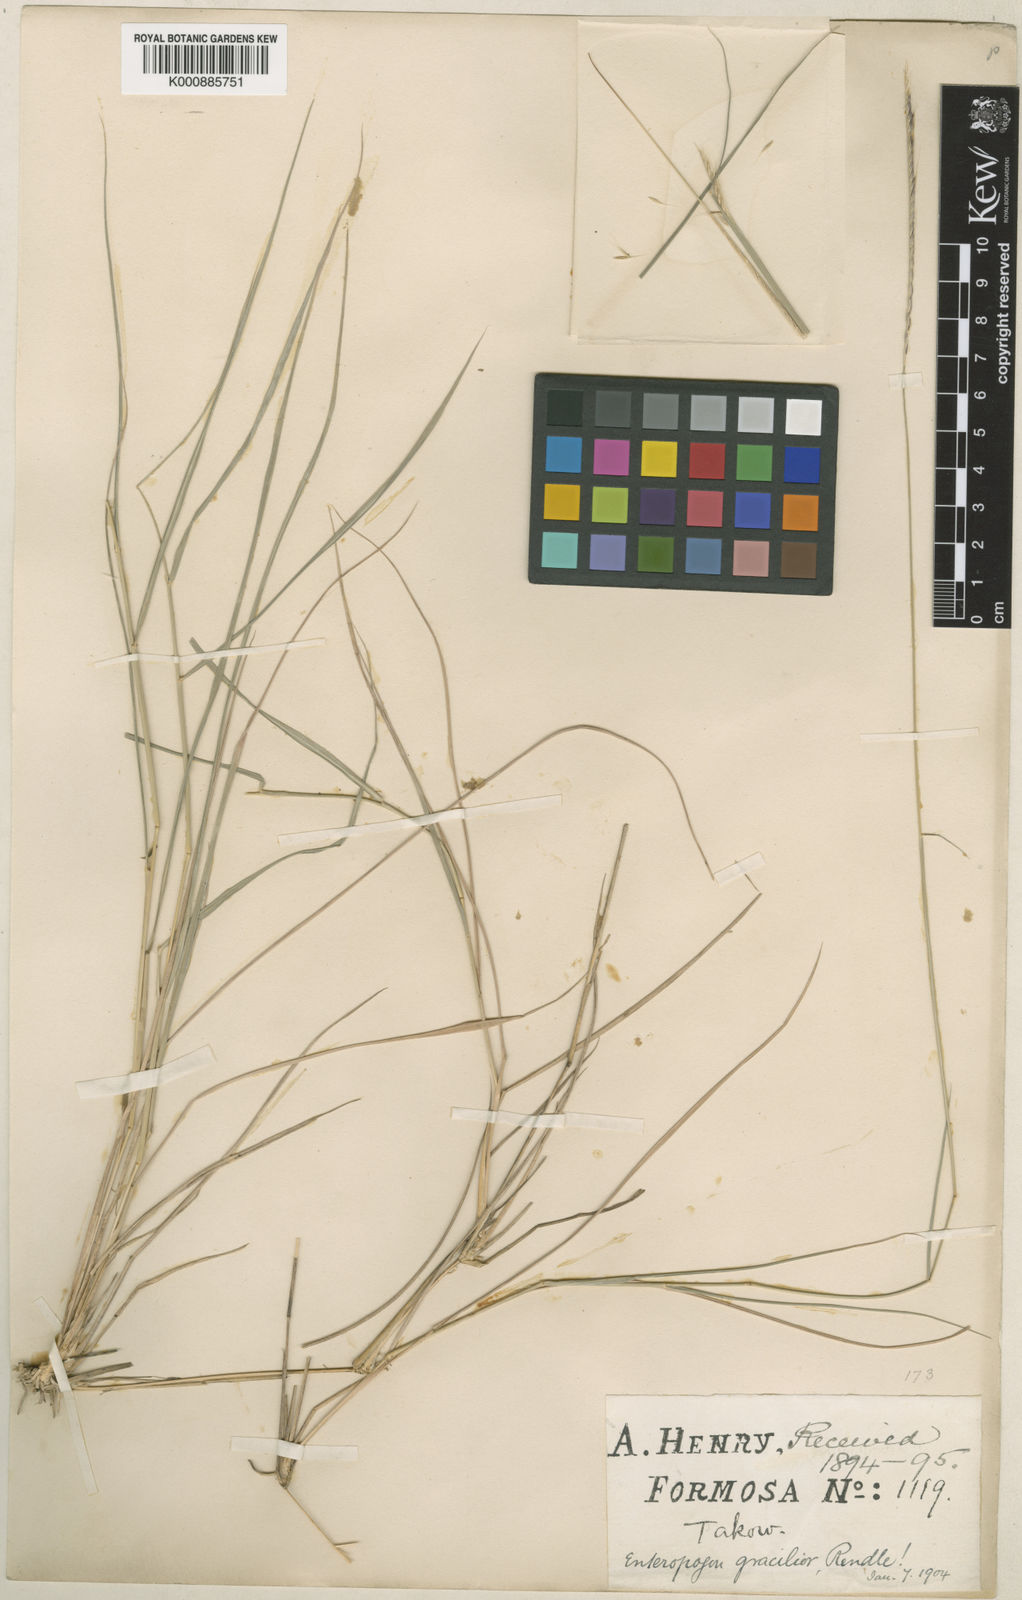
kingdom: Plantae
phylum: Tracheophyta
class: Liliopsida
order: Poales
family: Poaceae
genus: Enteropogon
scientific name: Enteropogon unispiceus
